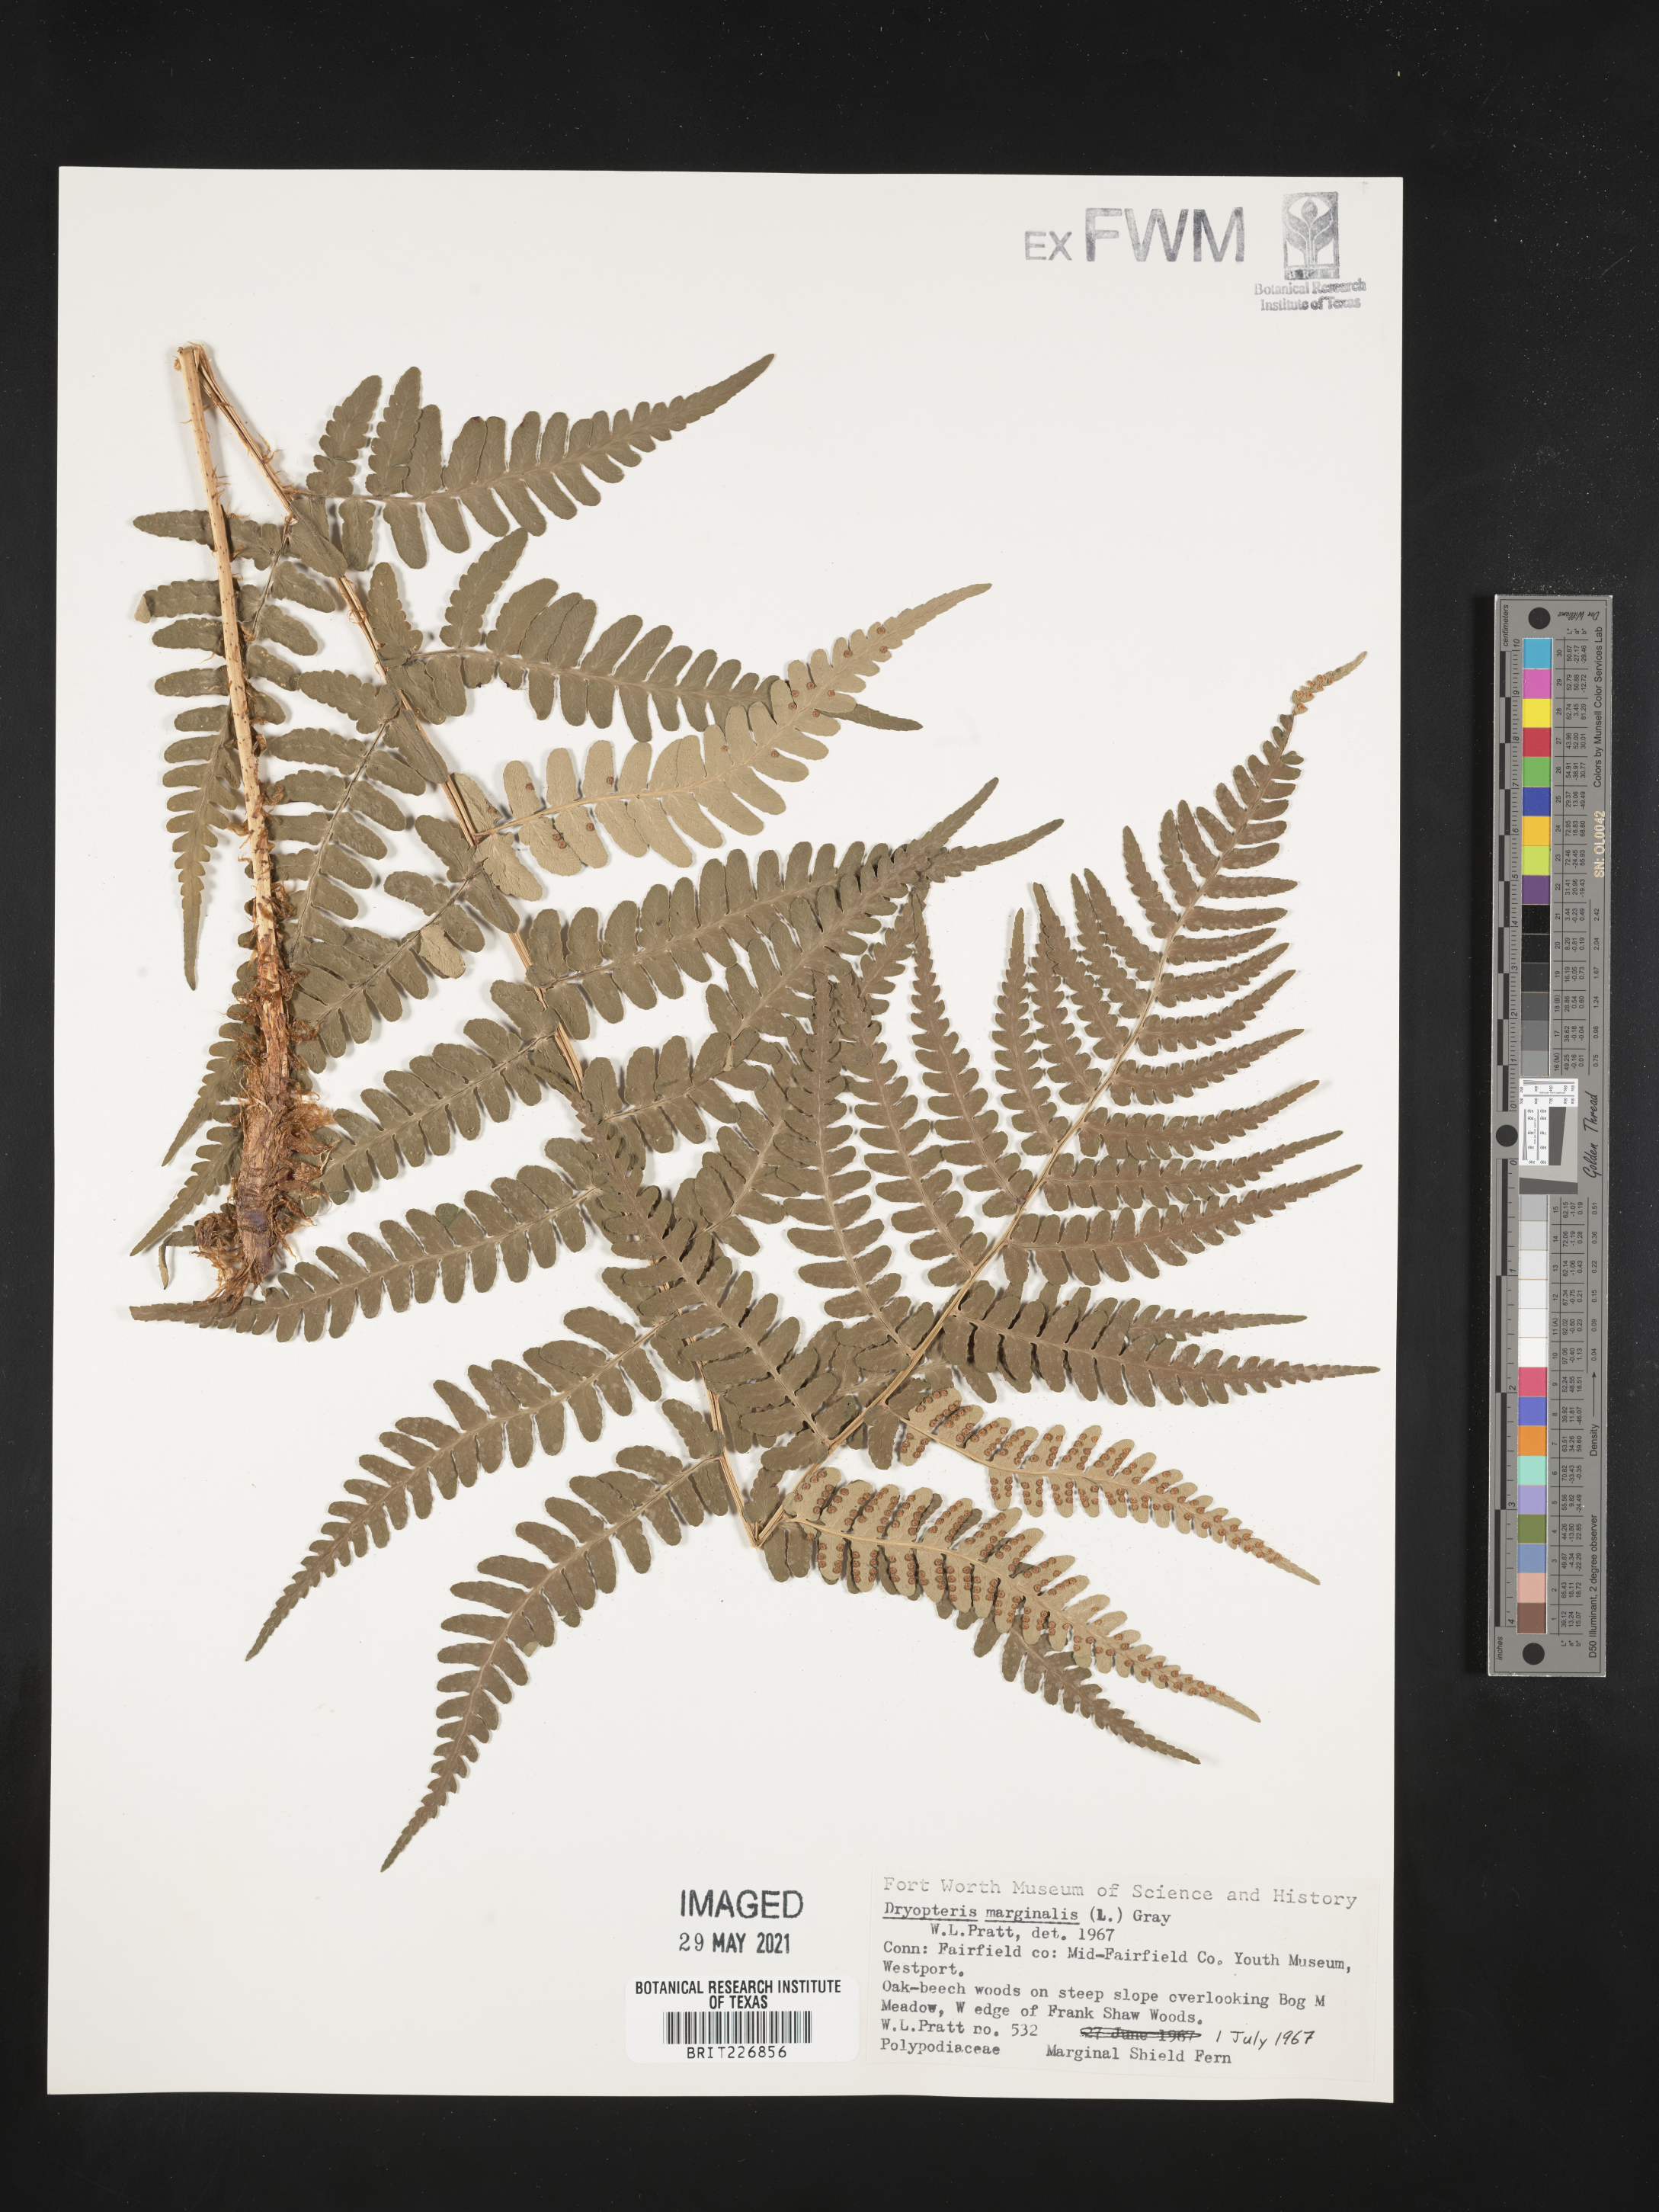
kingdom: Plantae
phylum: Tracheophyta
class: Polypodiopsida
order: Polypodiales
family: Dryopteridaceae
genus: Dryopteris
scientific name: Dryopteris marginalis
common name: Marginal wood fern
